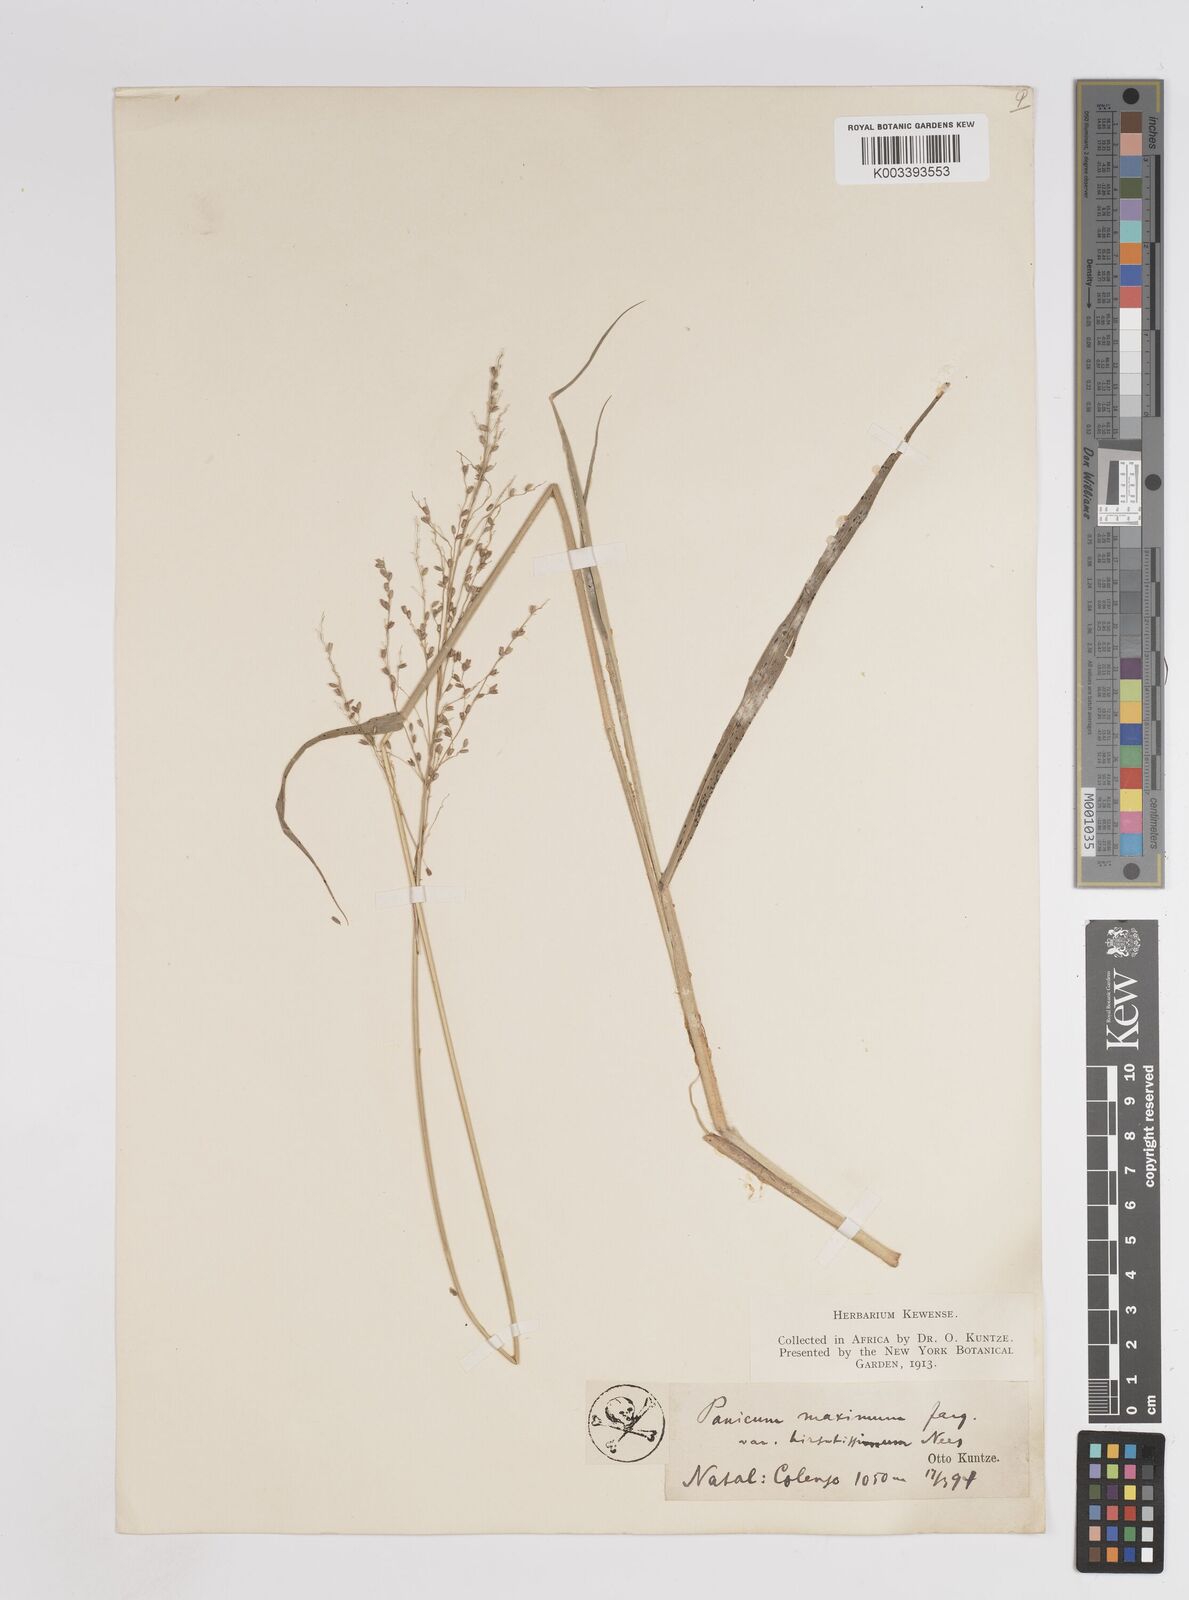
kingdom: Plantae
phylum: Tracheophyta
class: Liliopsida
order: Poales
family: Poaceae
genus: Megathyrsus
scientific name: Megathyrsus maximus
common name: Guineagrass
